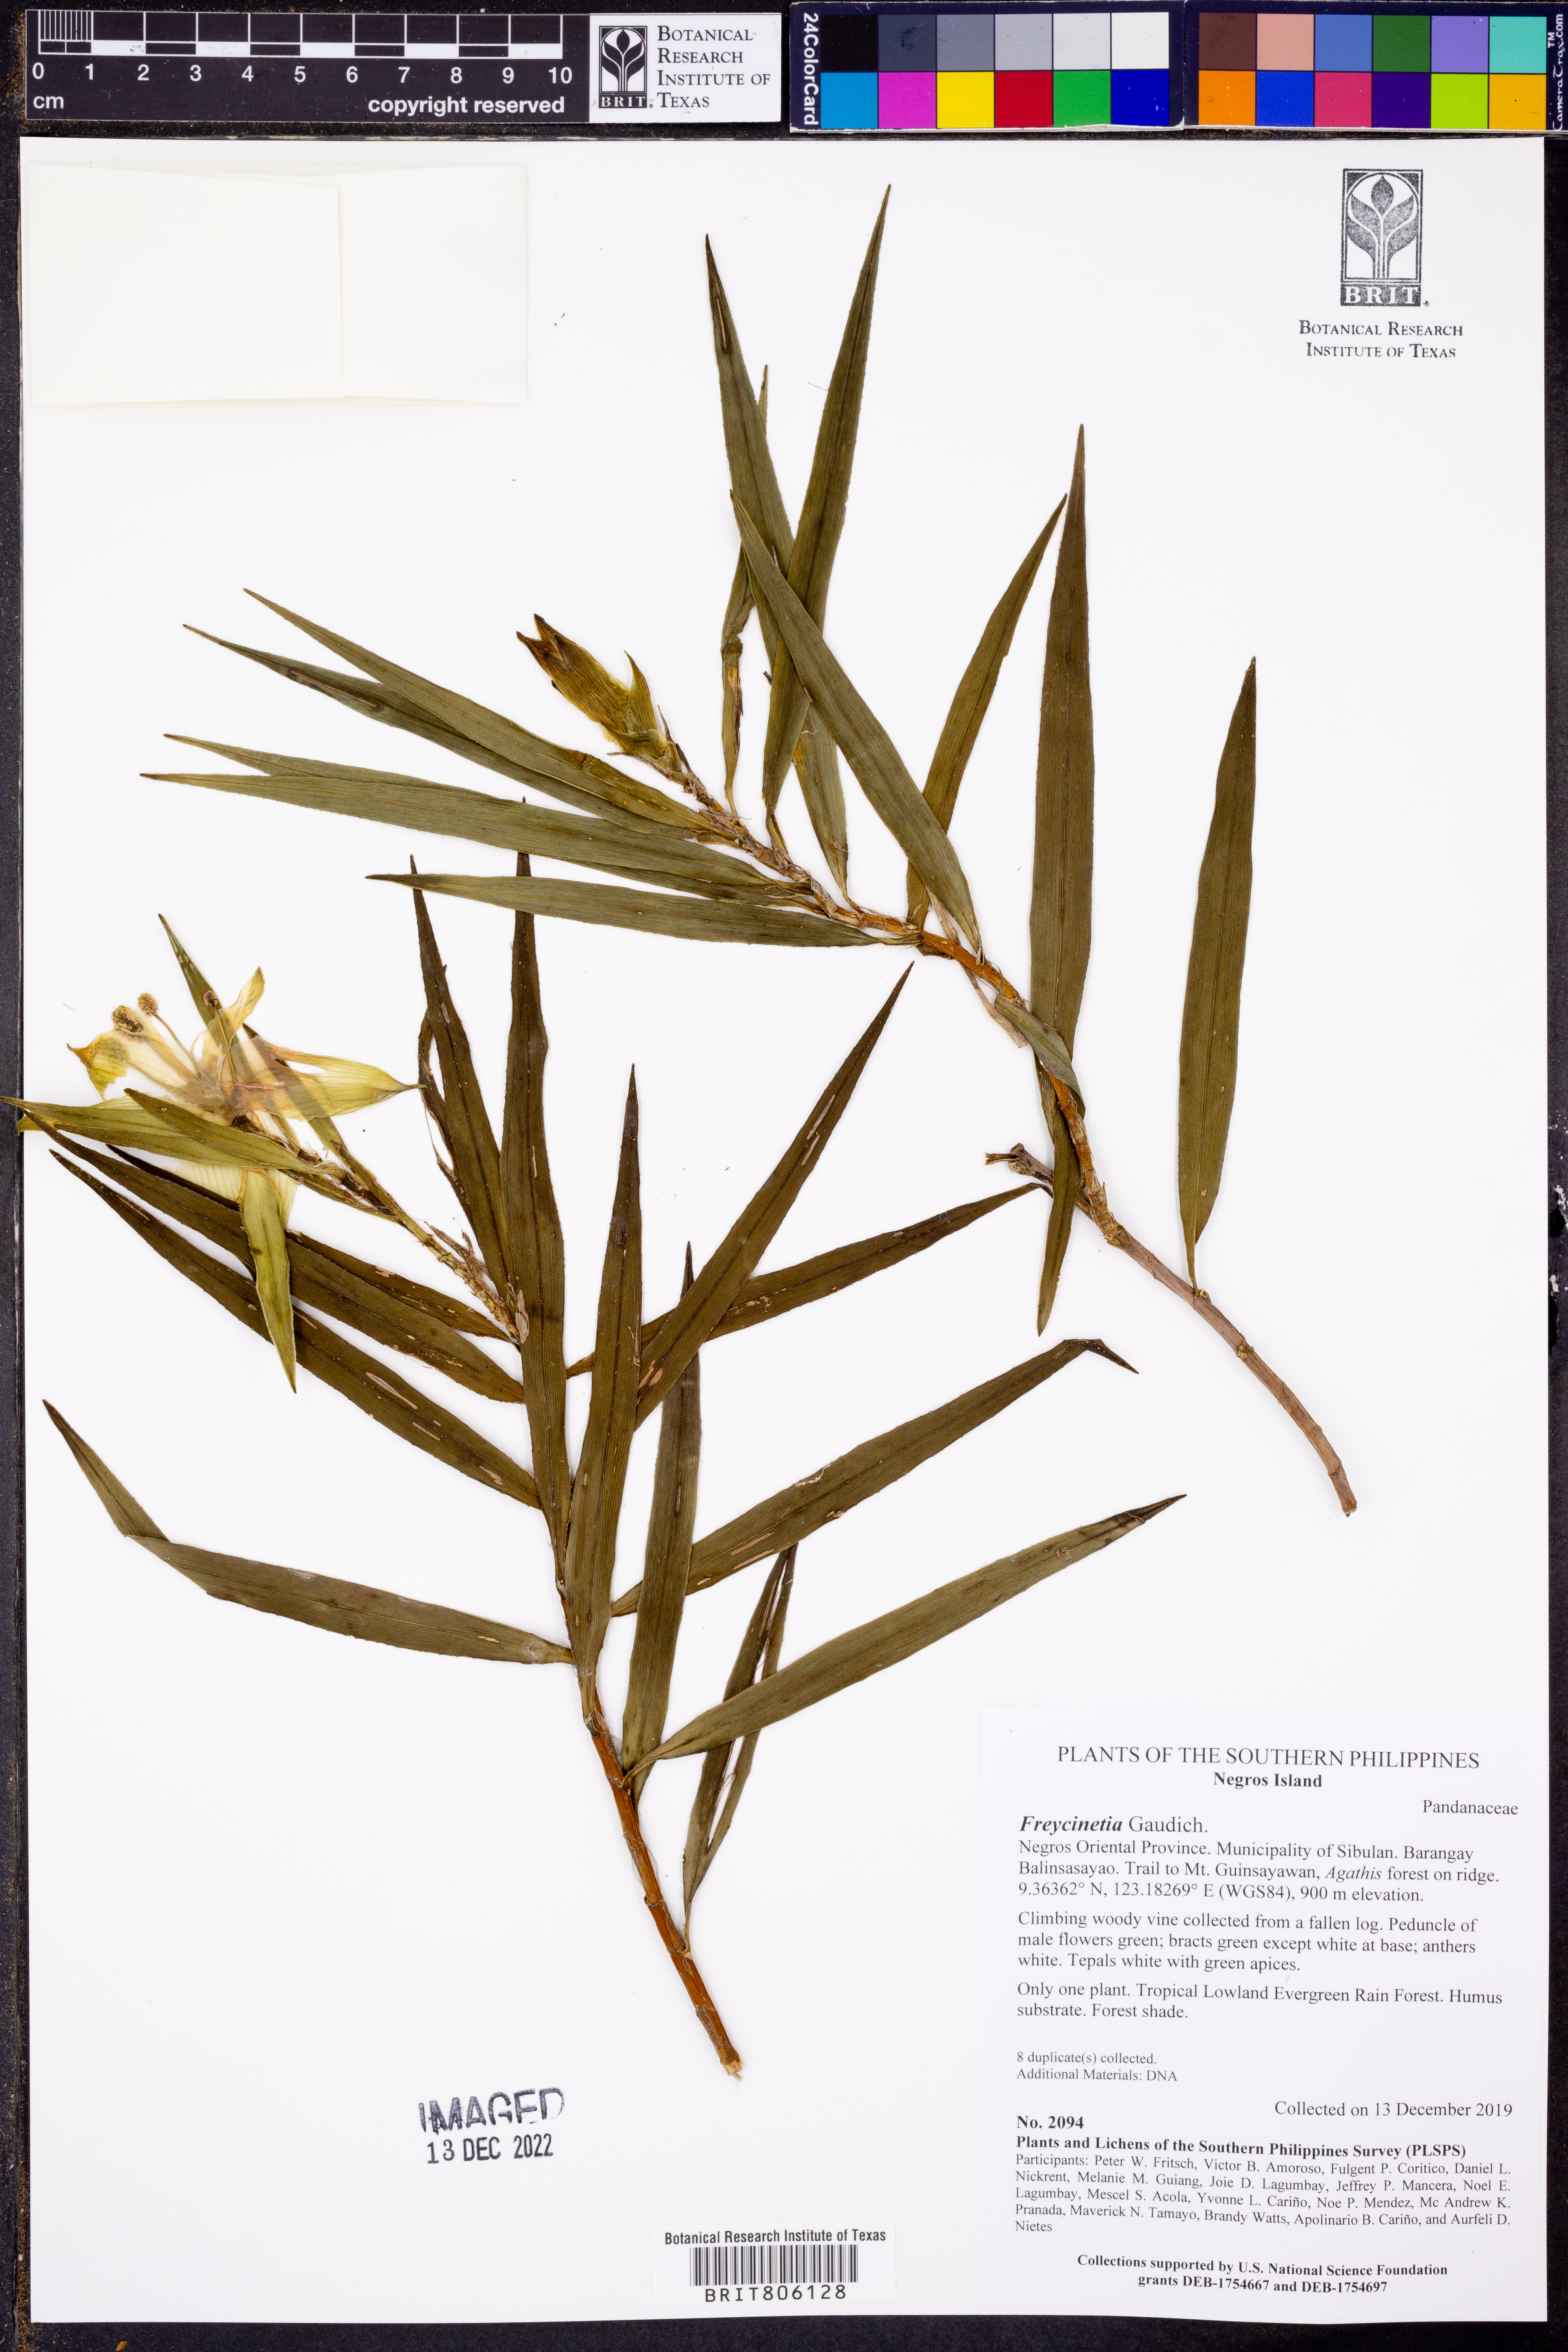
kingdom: Plantae
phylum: Tracheophyta
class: Liliopsida
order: Pandanales
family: Pandanaceae
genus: Freycinetia
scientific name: Freycinetia
